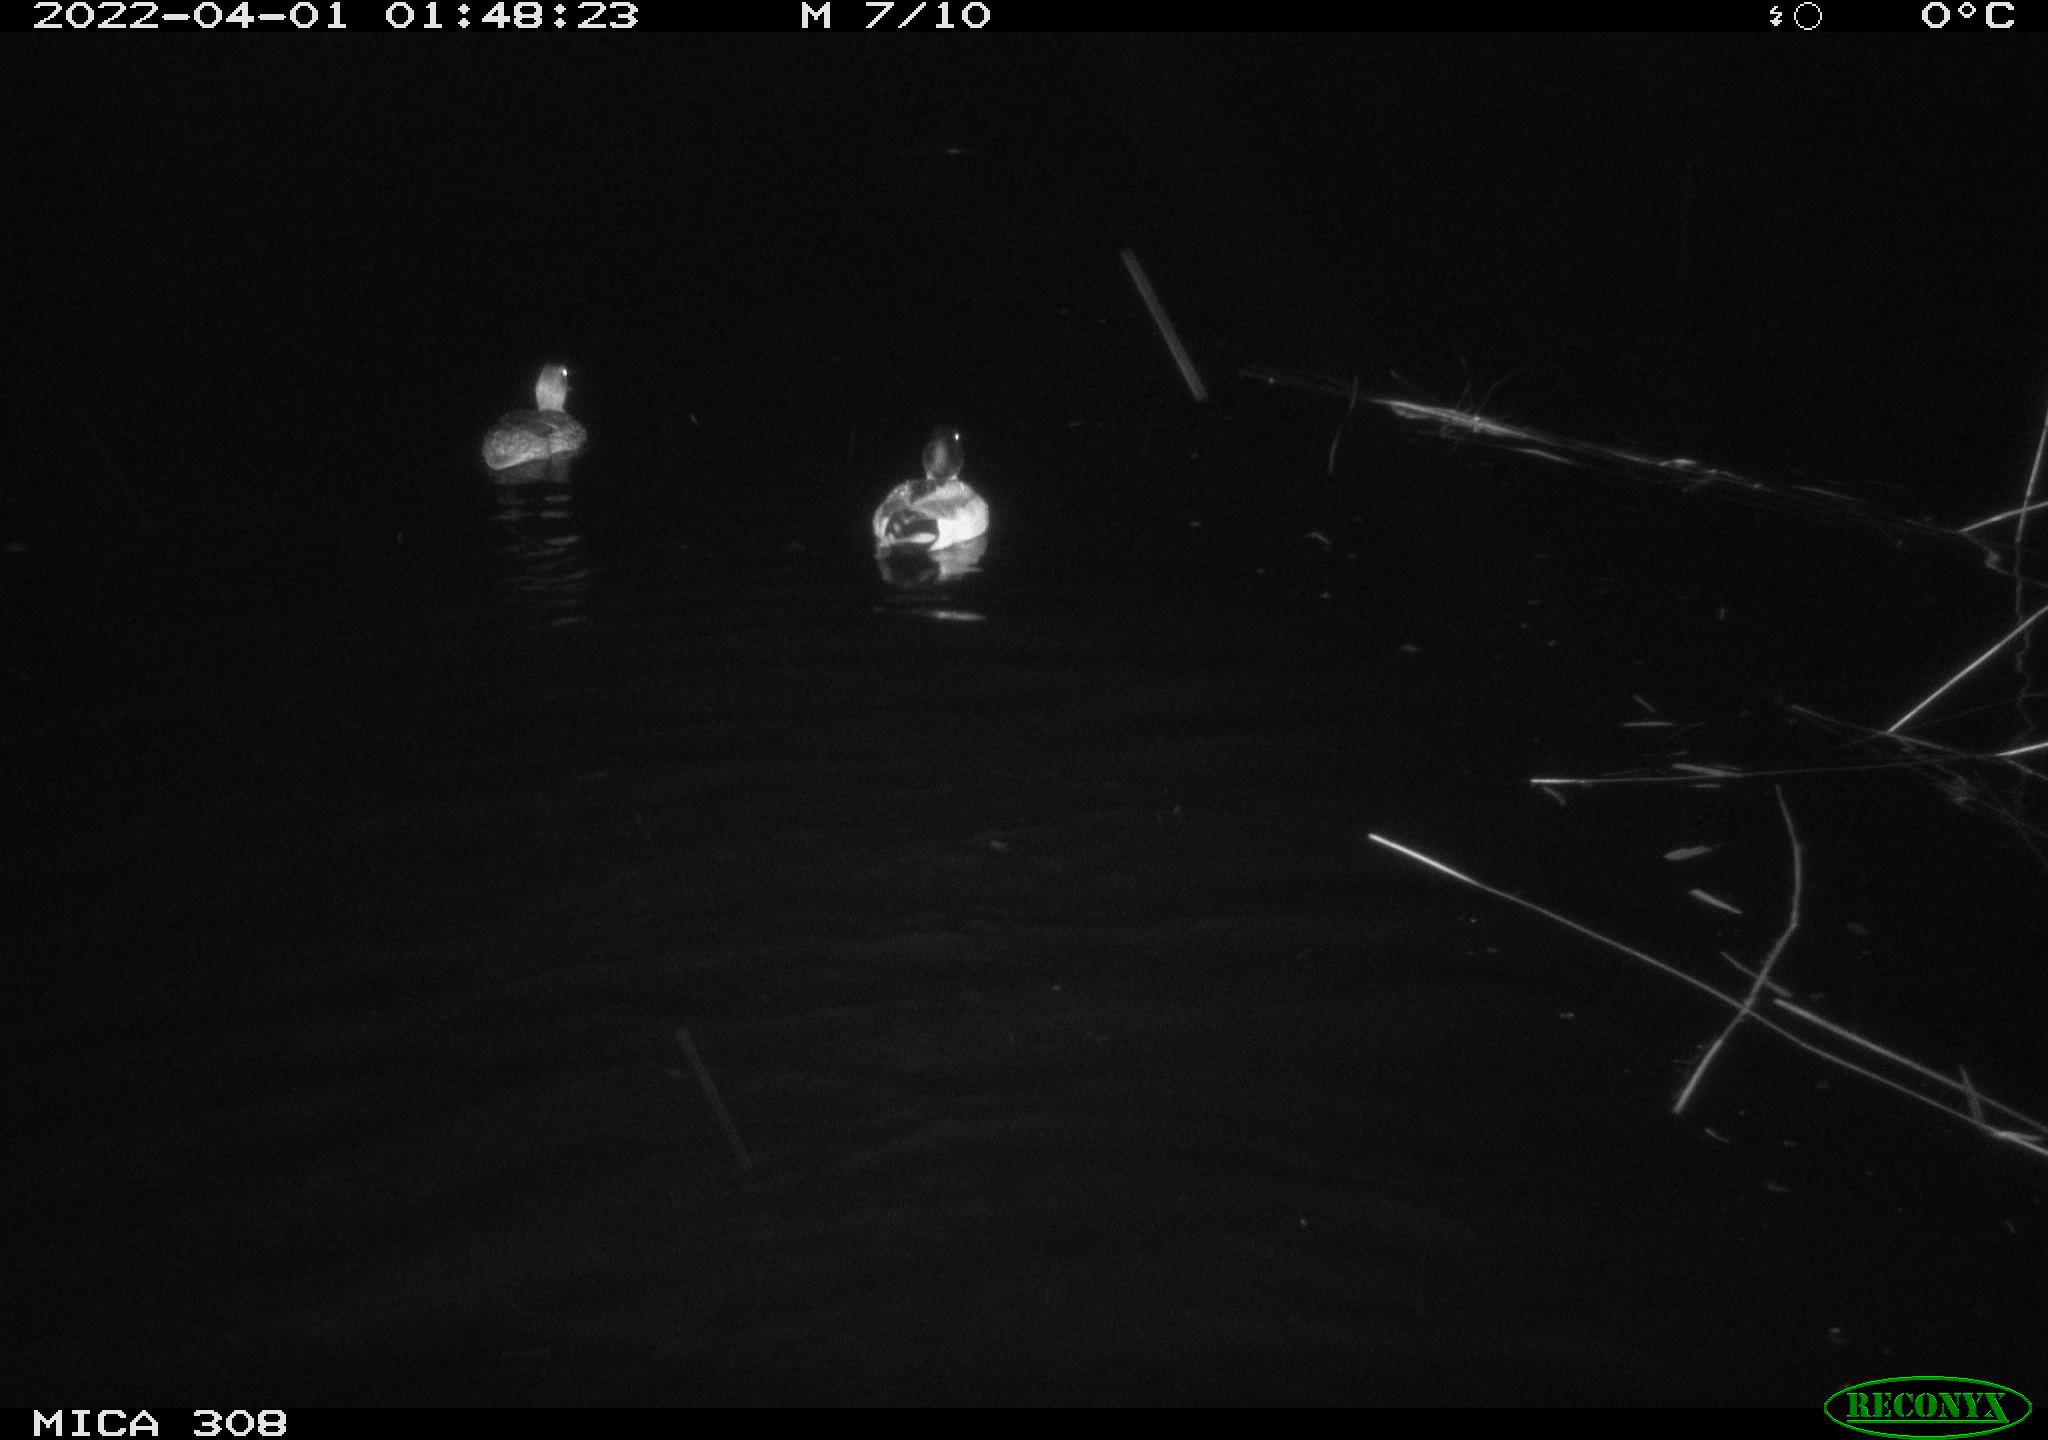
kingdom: Animalia
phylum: Chordata
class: Aves
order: Anseriformes
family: Anatidae
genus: Anas
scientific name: Anas platyrhynchos
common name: Mallard
